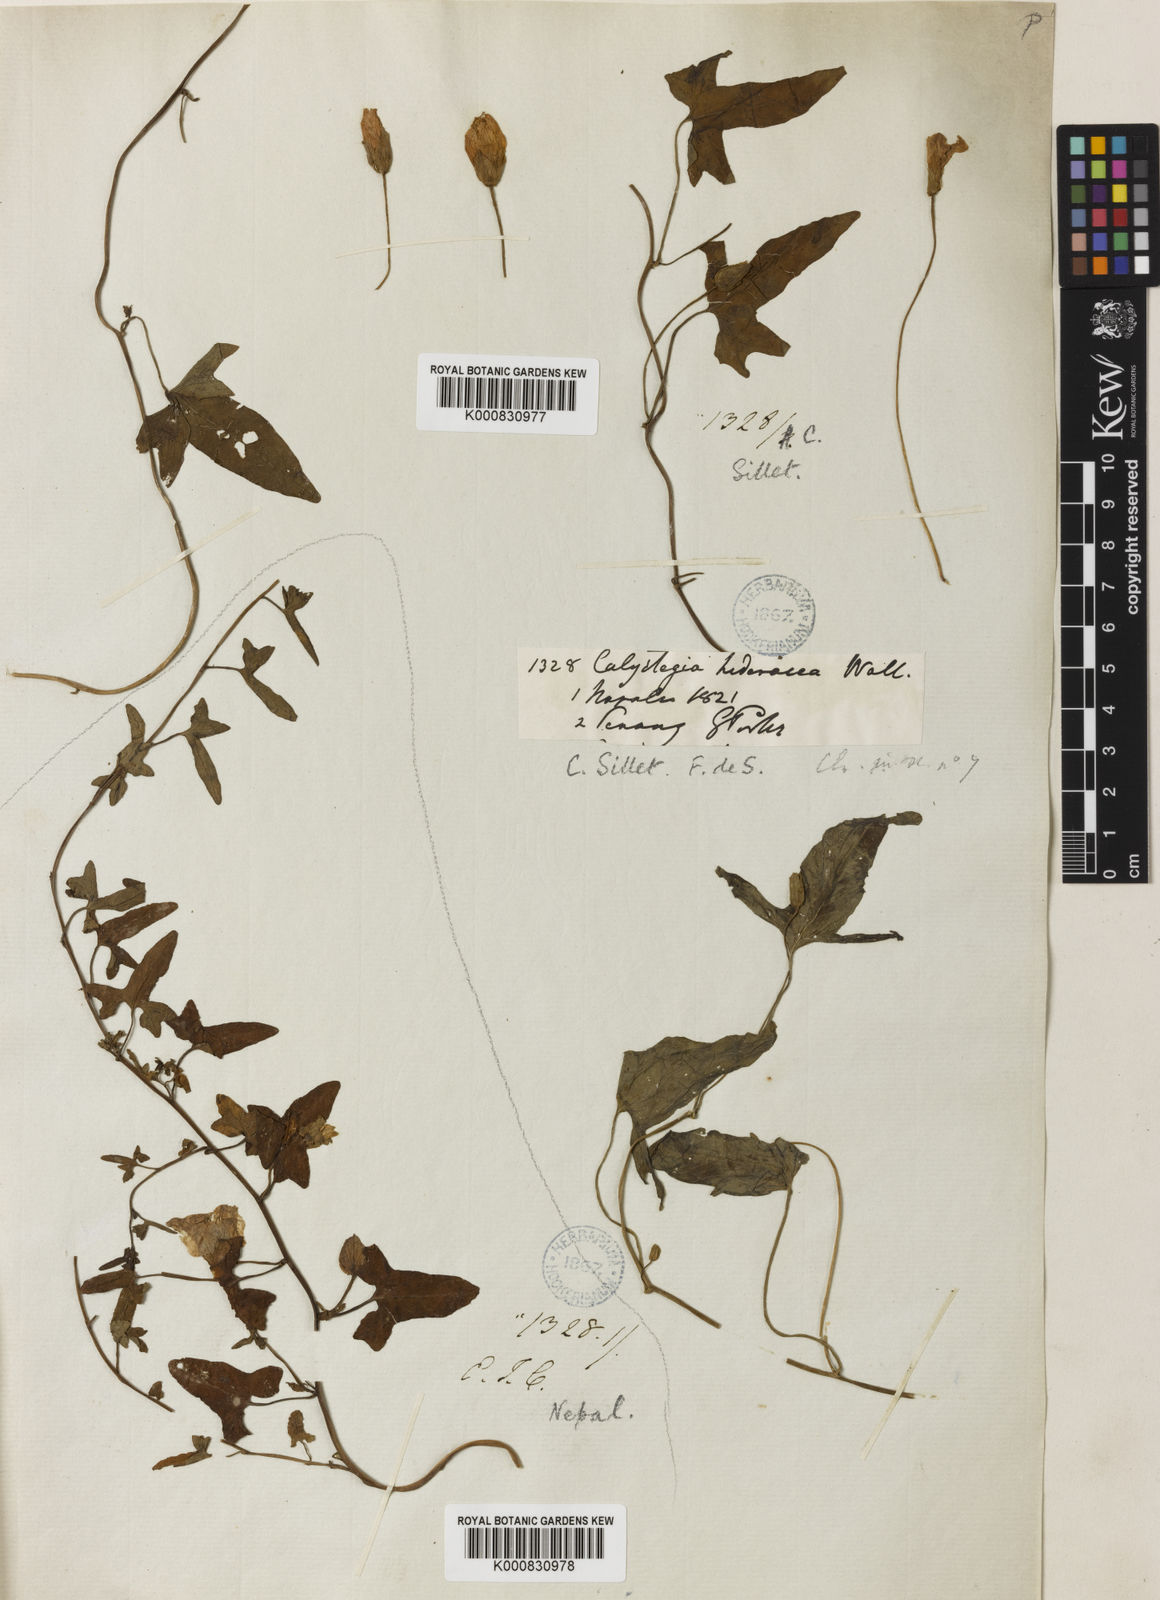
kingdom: Plantae
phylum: Tracheophyta
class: Magnoliopsida
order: Solanales
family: Convolvulaceae
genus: Calystegia
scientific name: Calystegia hederacea
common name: Japanese false bindweed
